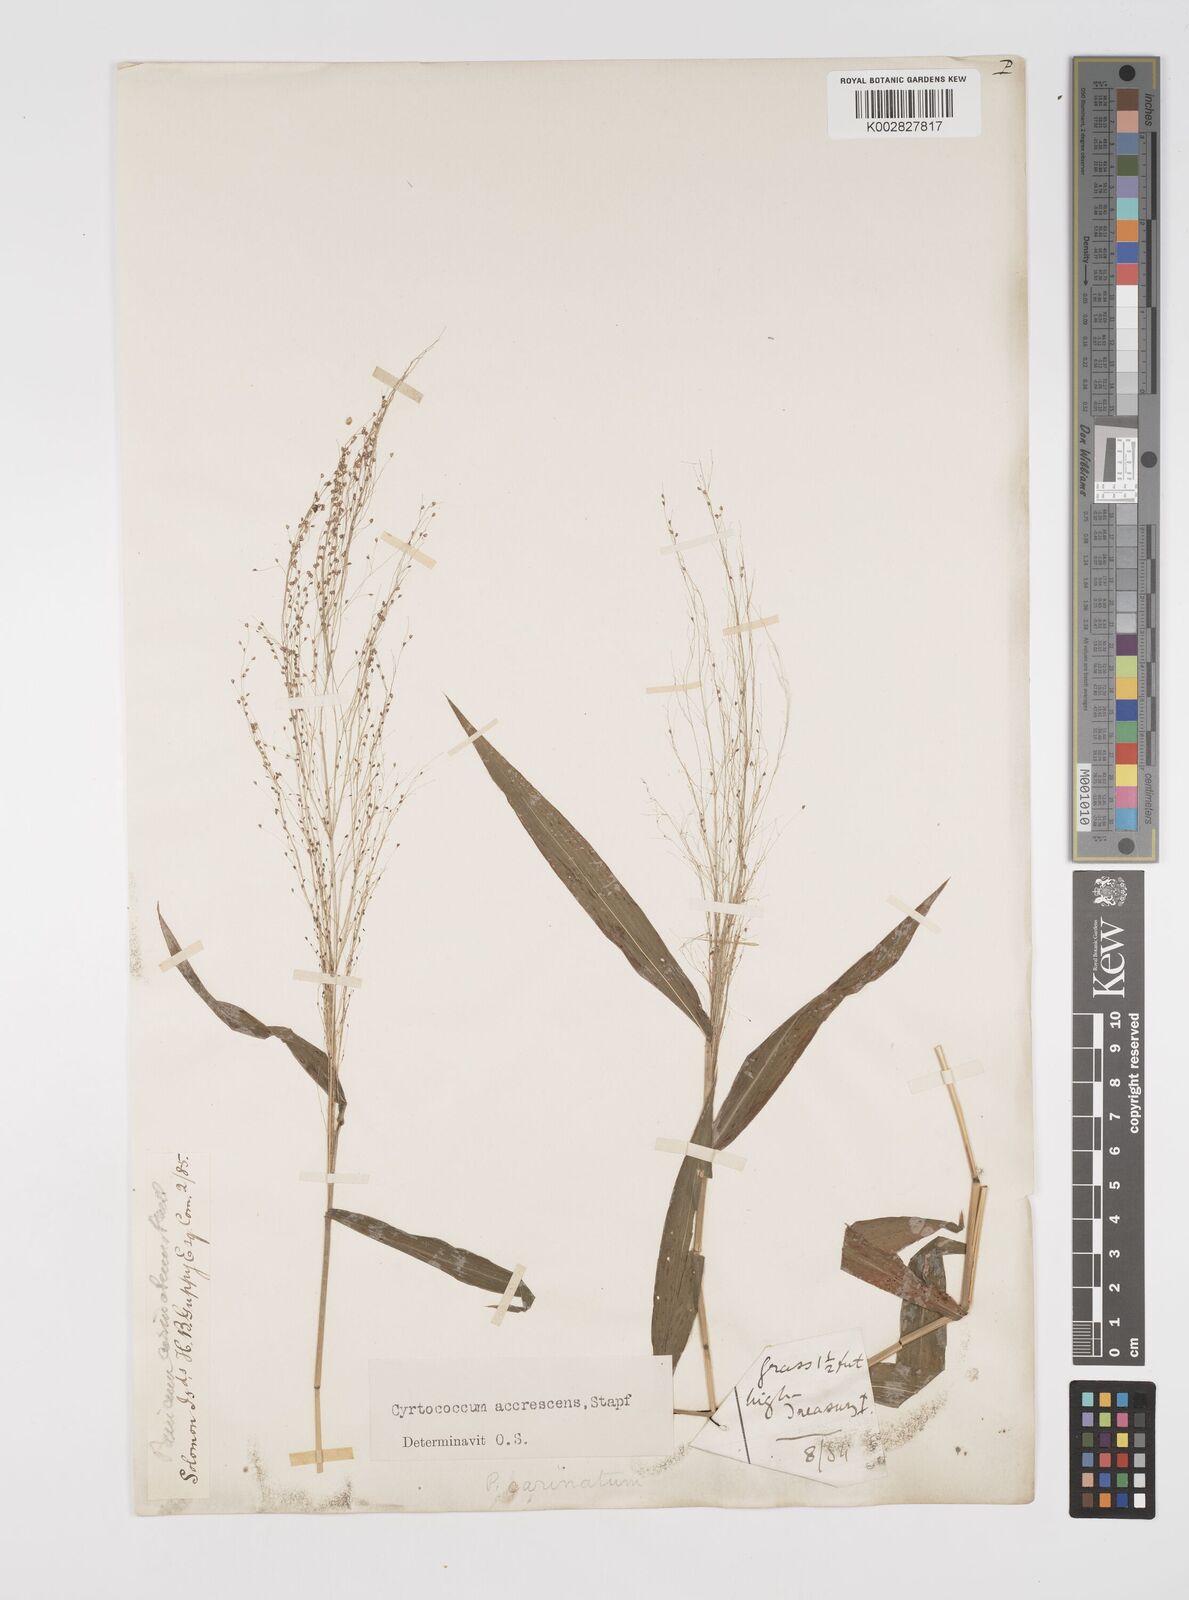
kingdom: Plantae
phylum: Tracheophyta
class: Liliopsida
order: Poales
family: Poaceae
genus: Cyrtococcum
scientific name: Cyrtococcum accrescens
